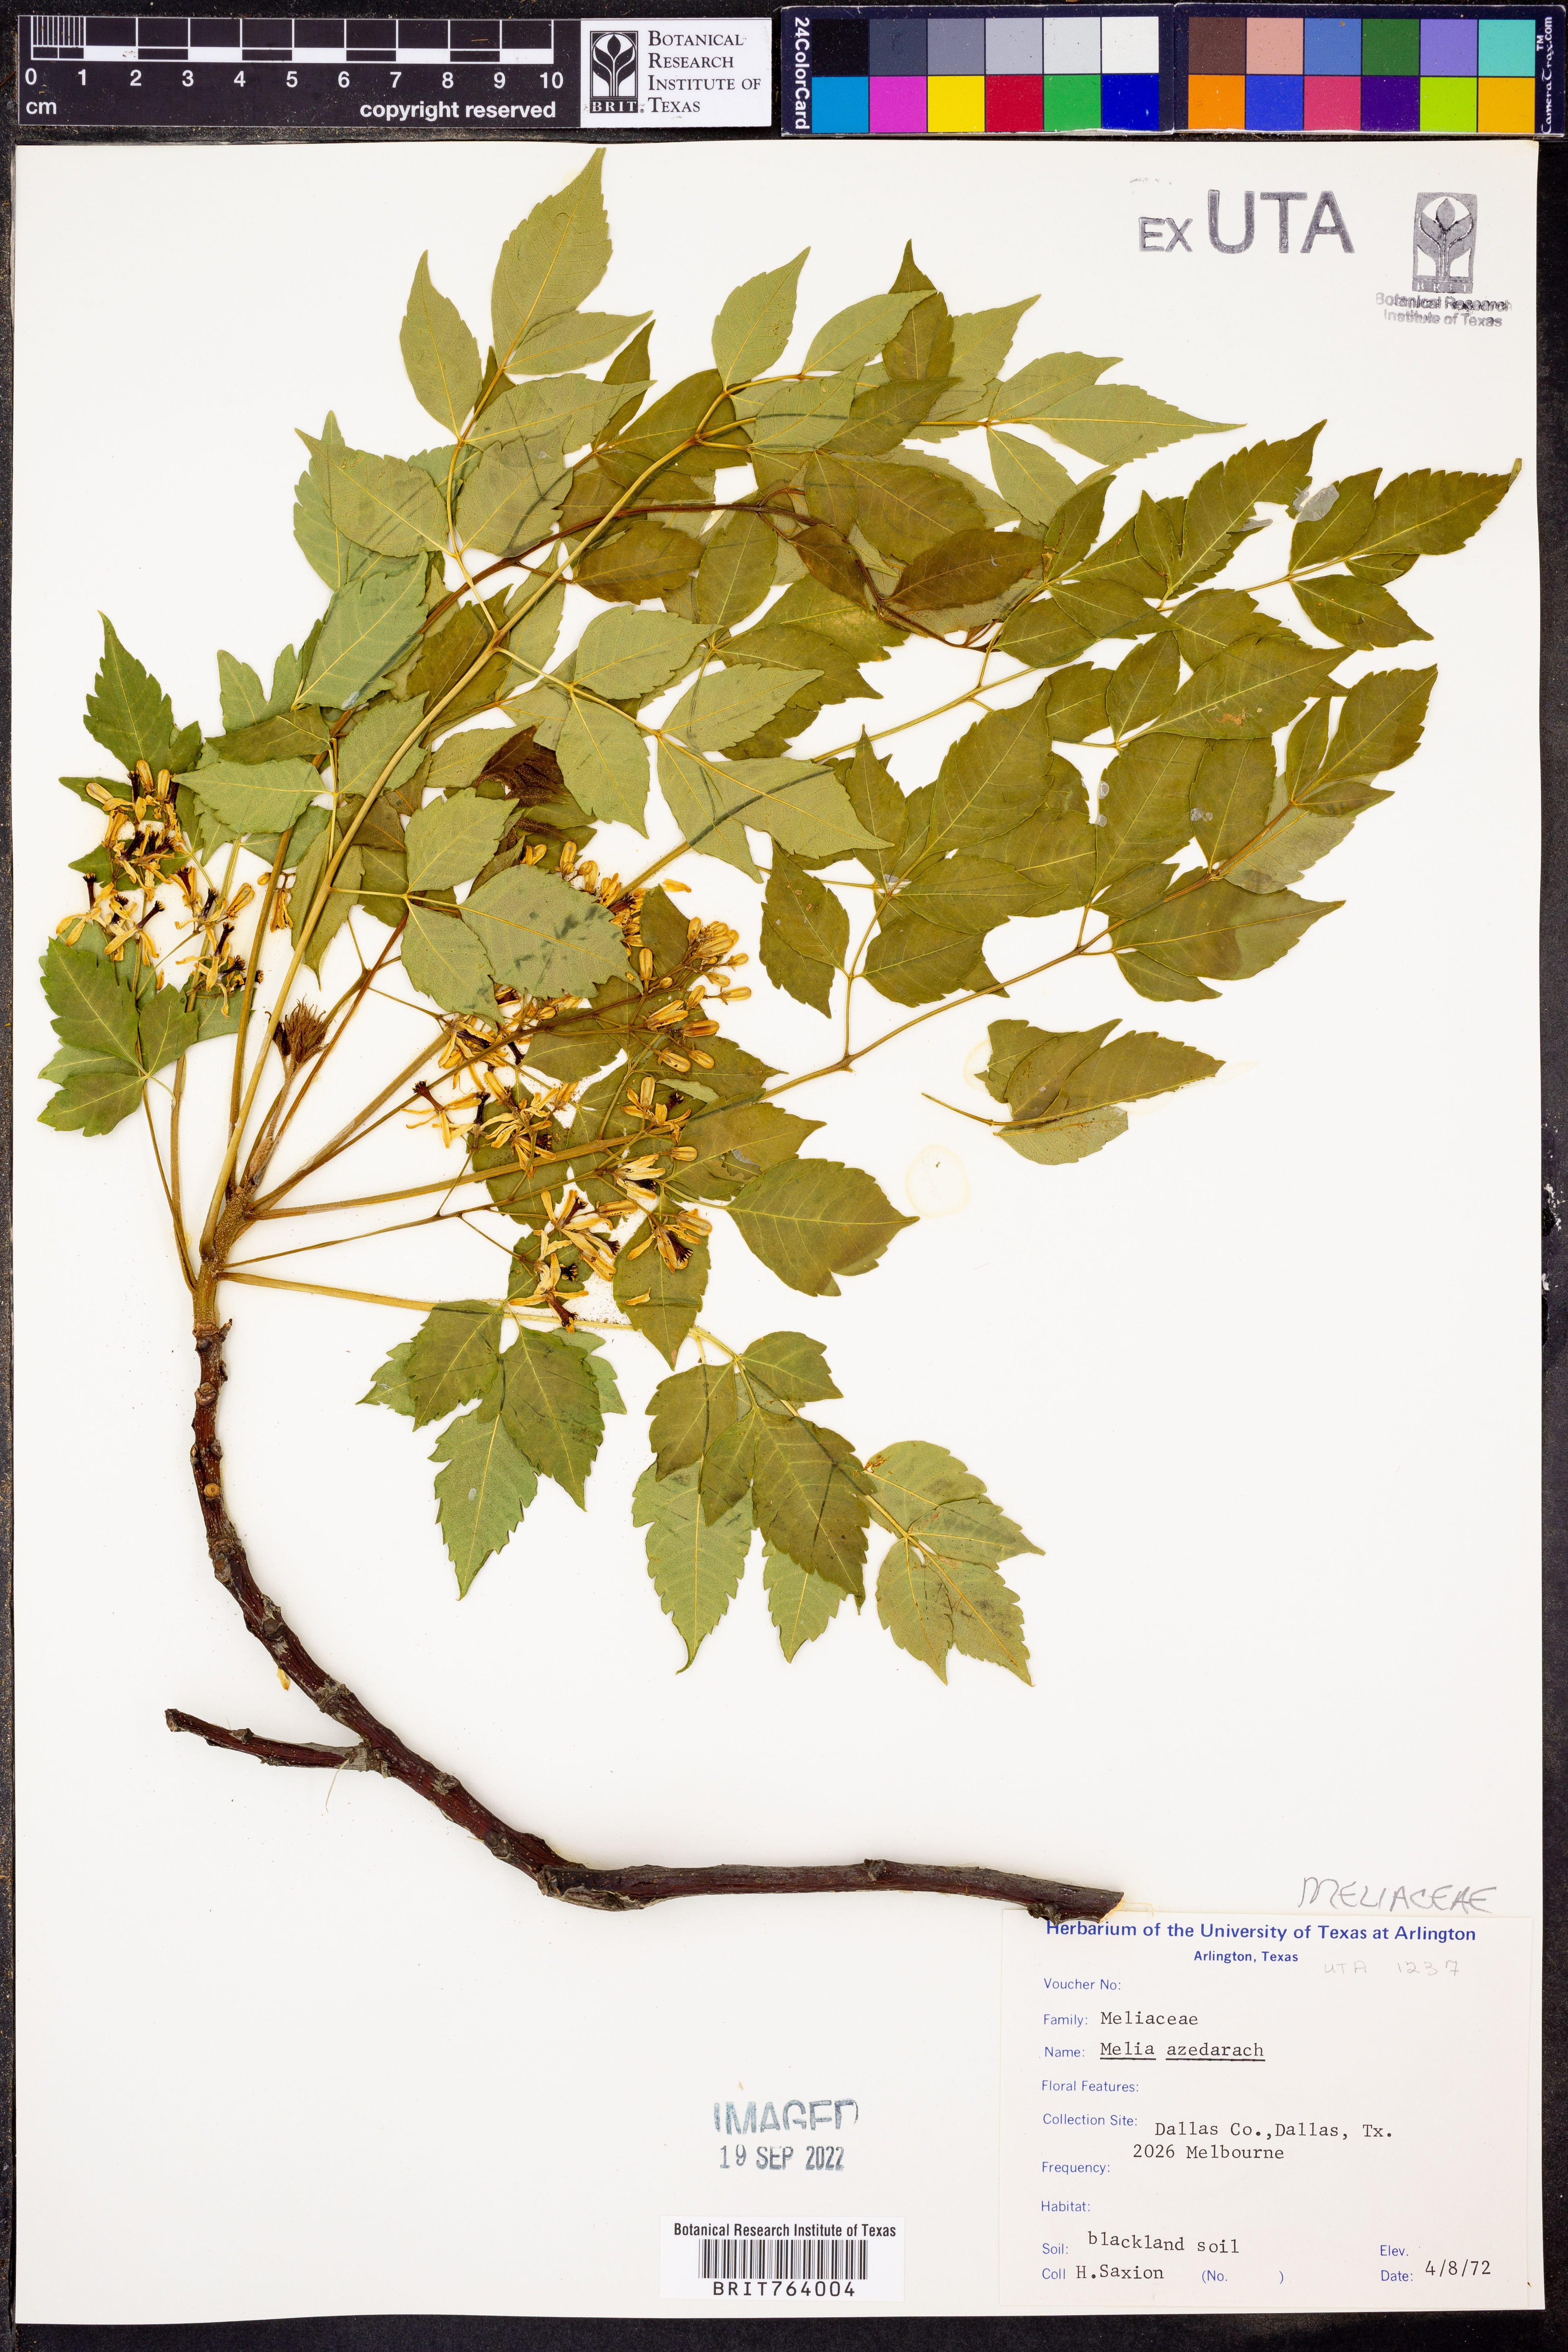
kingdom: Plantae
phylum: Tracheophyta
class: Magnoliopsida
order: Sapindales
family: Meliaceae
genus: Melia
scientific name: Melia azedarach
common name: Chinaberrytree
